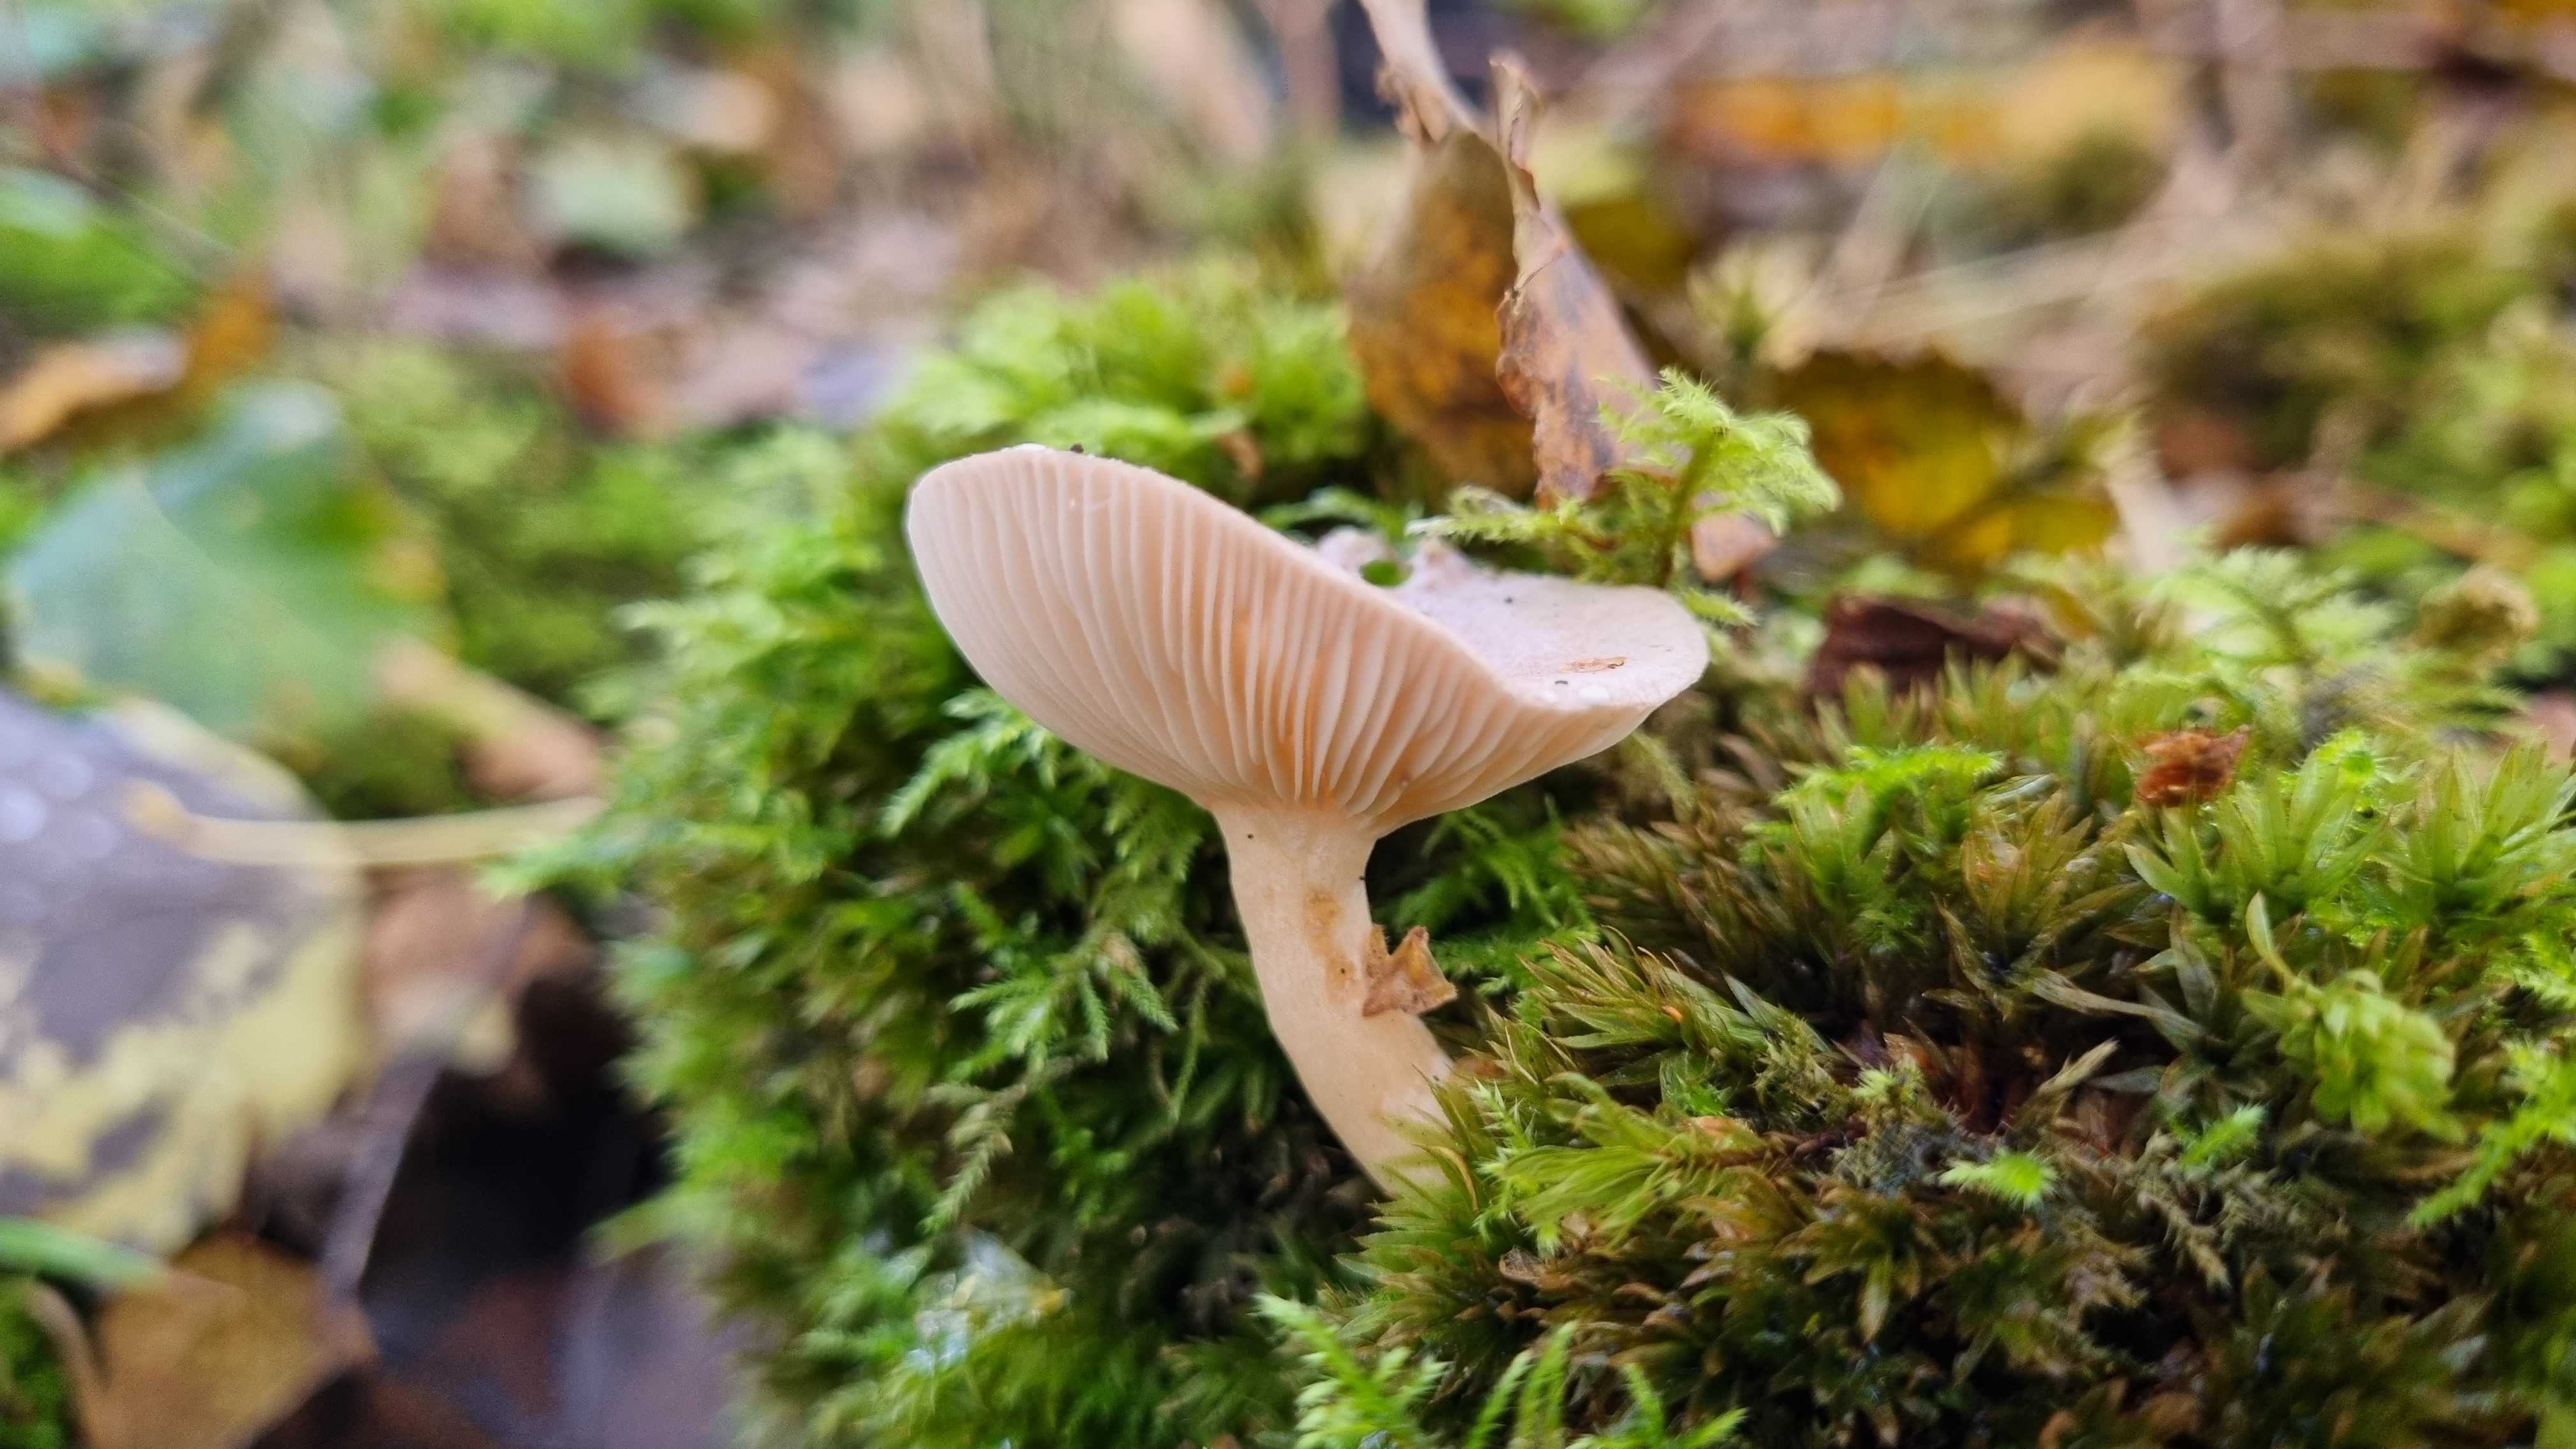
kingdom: Fungi
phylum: Basidiomycota
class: Agaricomycetes
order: Russulales
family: Russulaceae
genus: Lactarius
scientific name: Lactarius
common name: mælkehat
